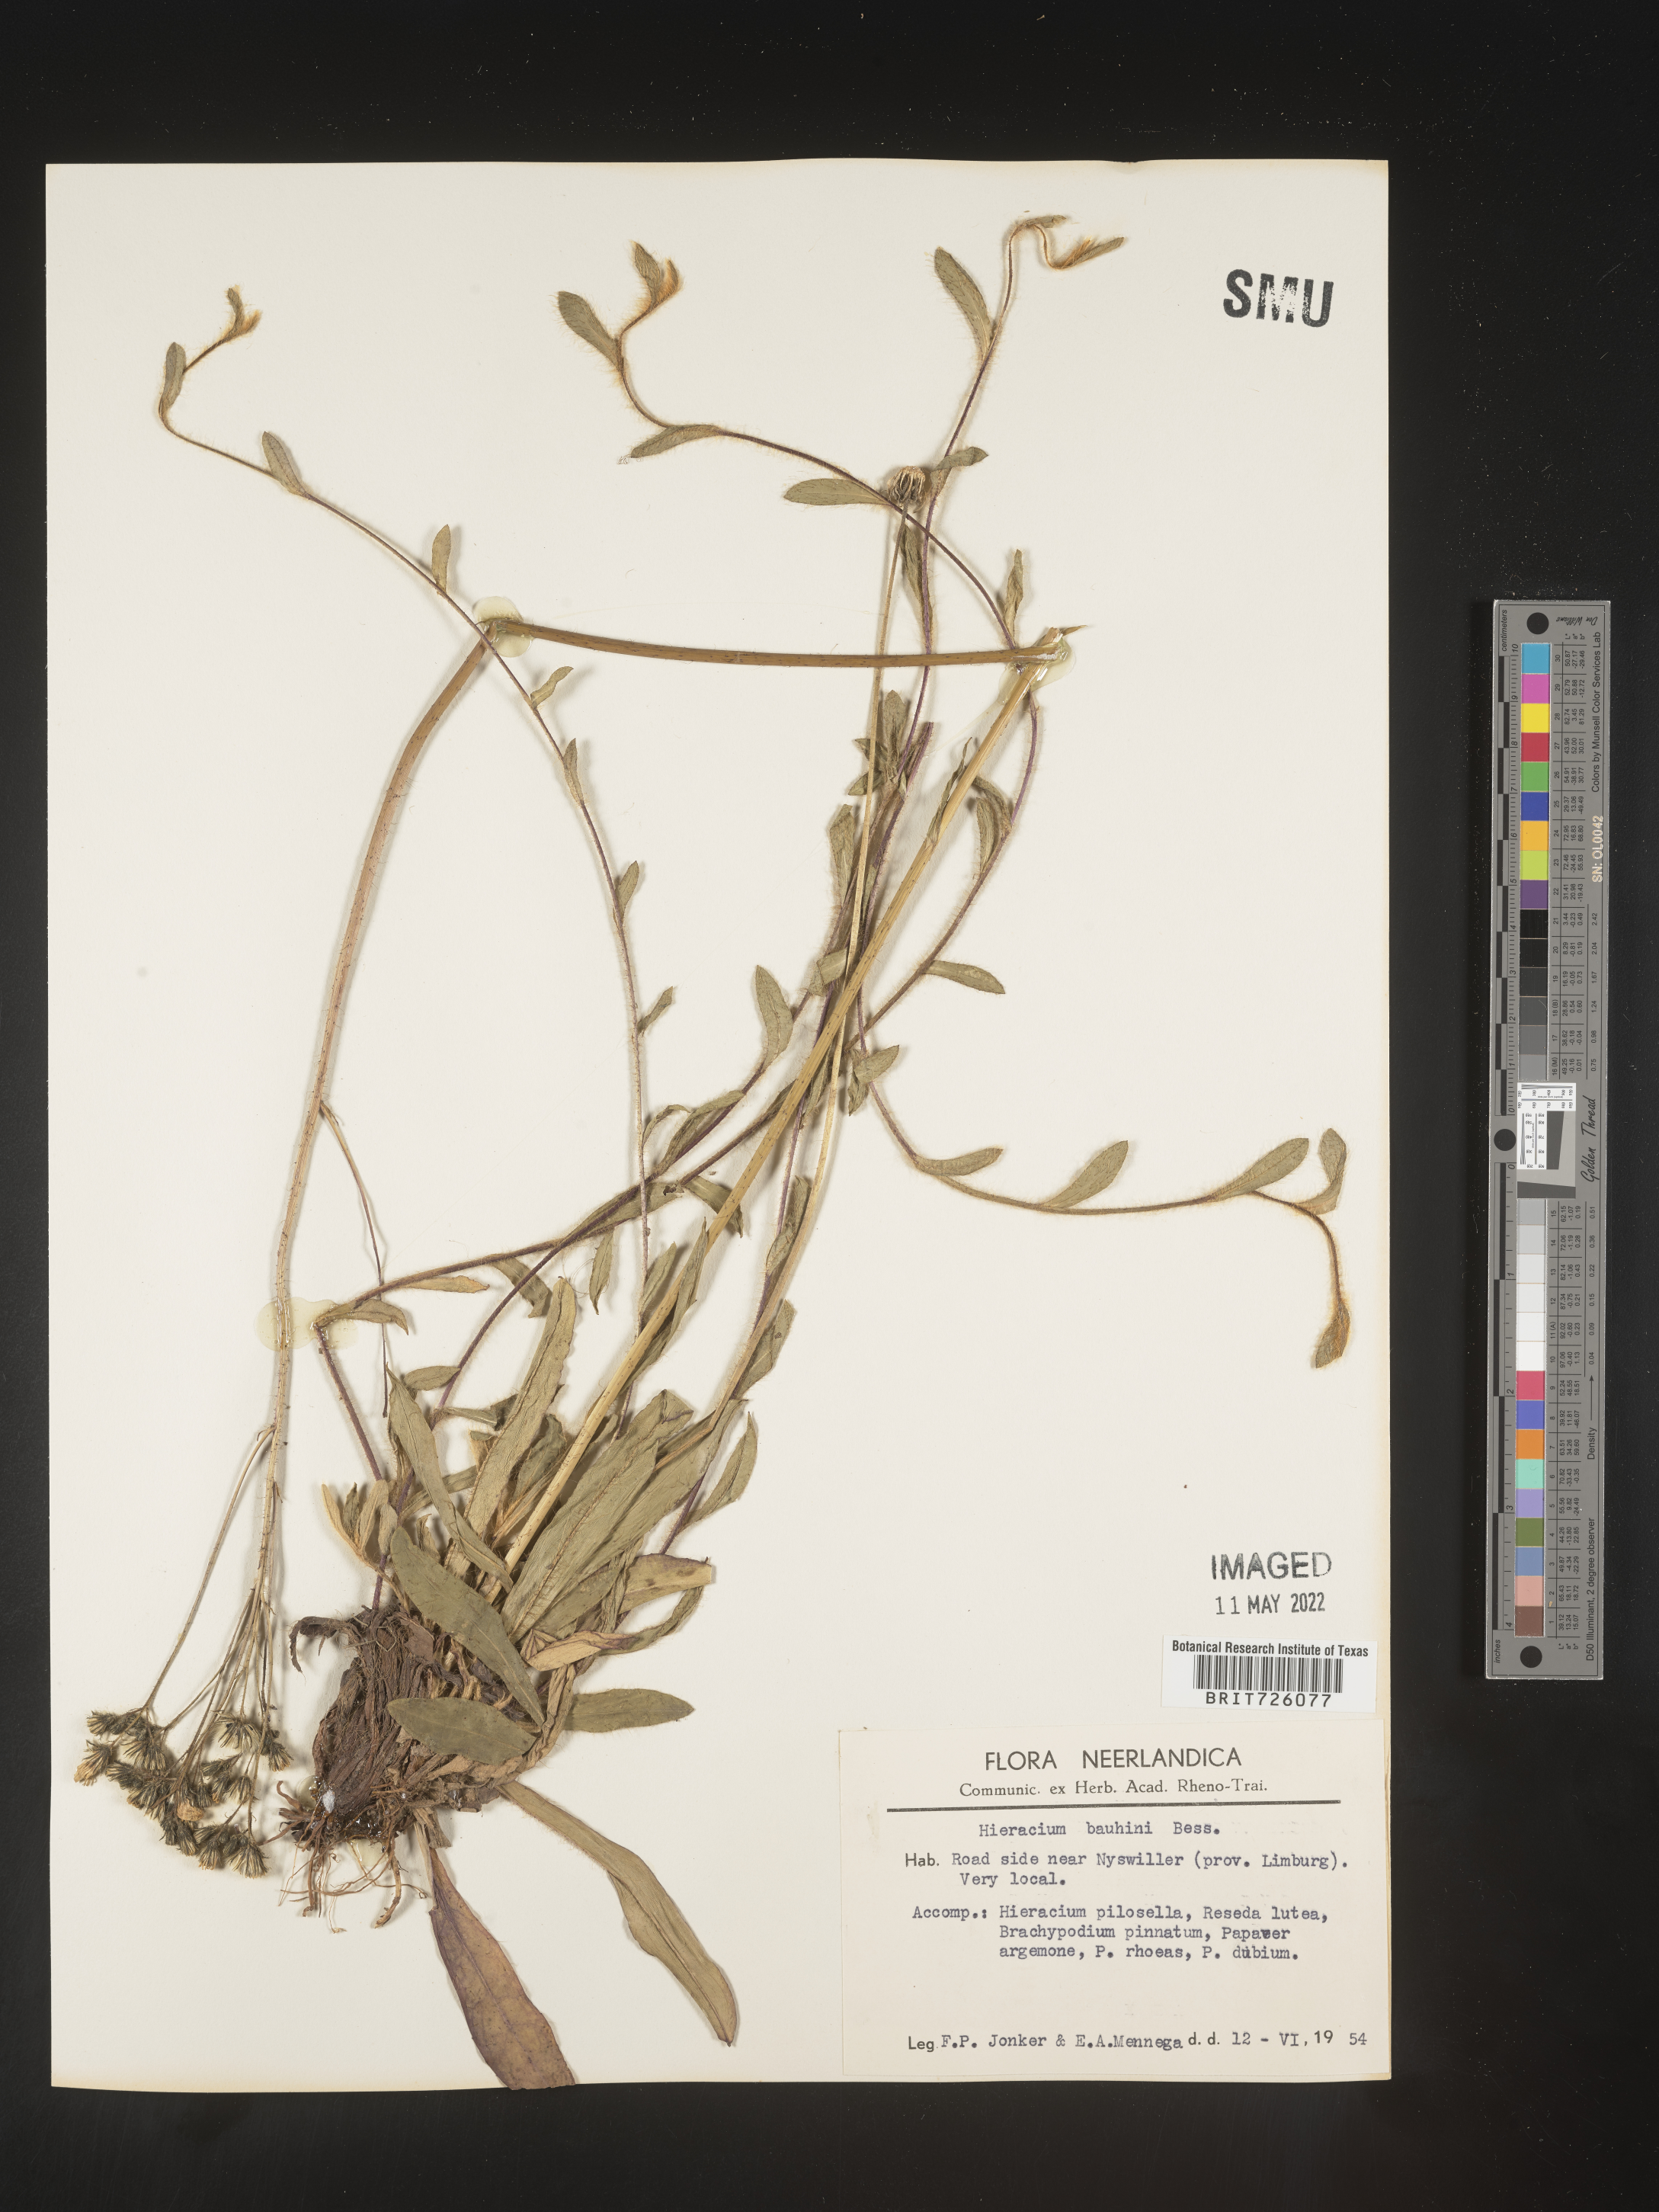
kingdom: Plantae
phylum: Tracheophyta
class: Magnoliopsida
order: Asterales
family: Asteraceae
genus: Hieracium
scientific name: Hieracium
